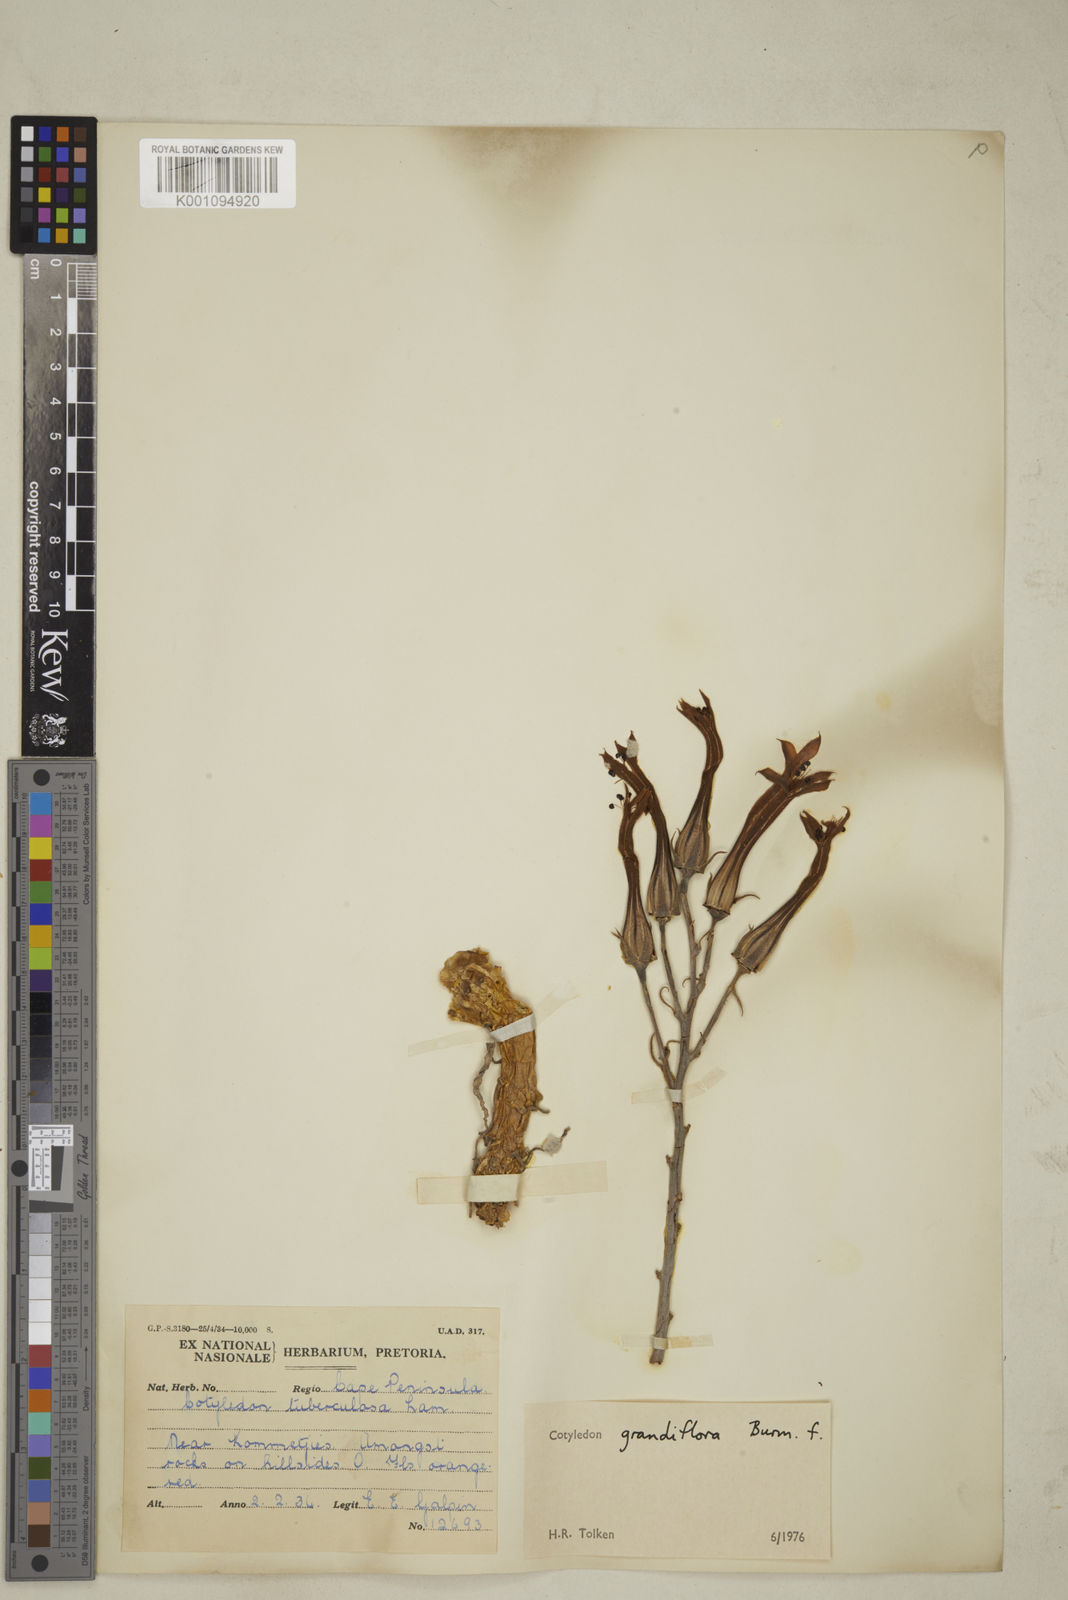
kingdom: Plantae
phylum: Tracheophyta
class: Magnoliopsida
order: Saxifragales
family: Crassulaceae
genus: Tylecodon
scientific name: Tylecodon grandiflorus
